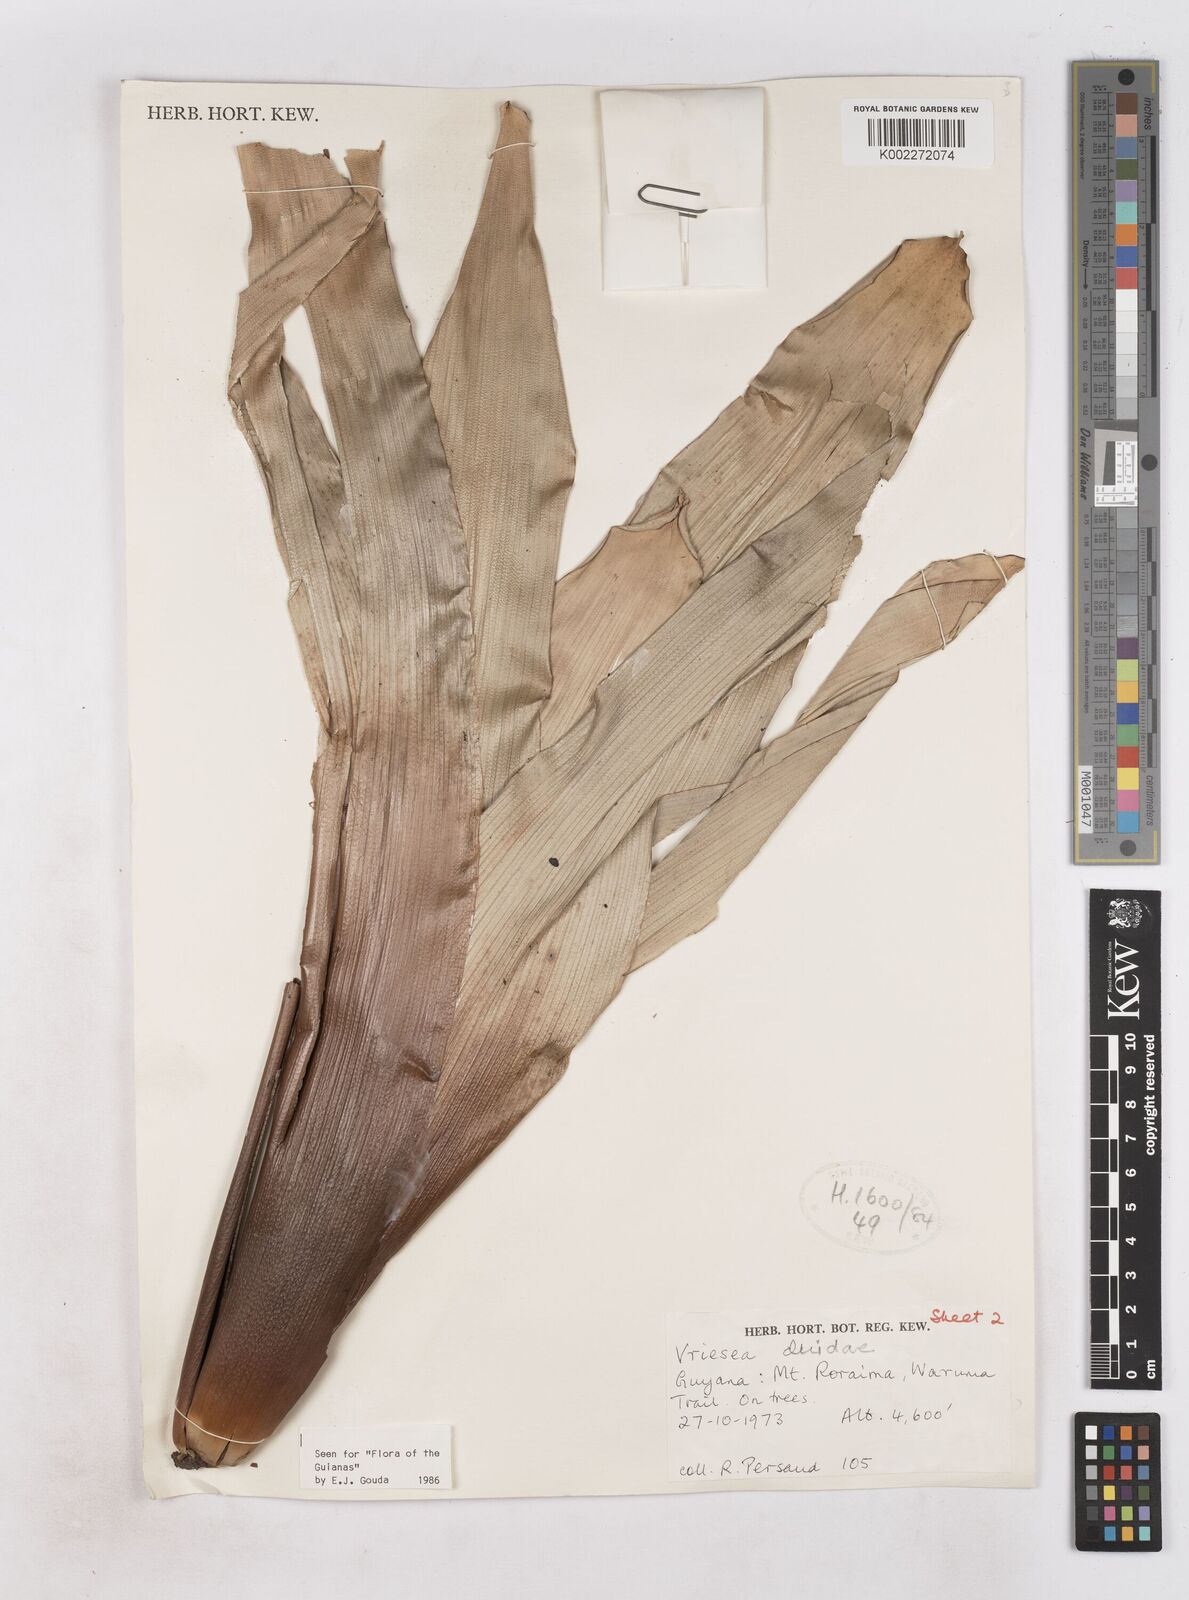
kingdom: Plantae
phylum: Tracheophyta
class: Liliopsida
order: Poales
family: Bromeliaceae
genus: Vriesea
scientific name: Vriesea duidae
